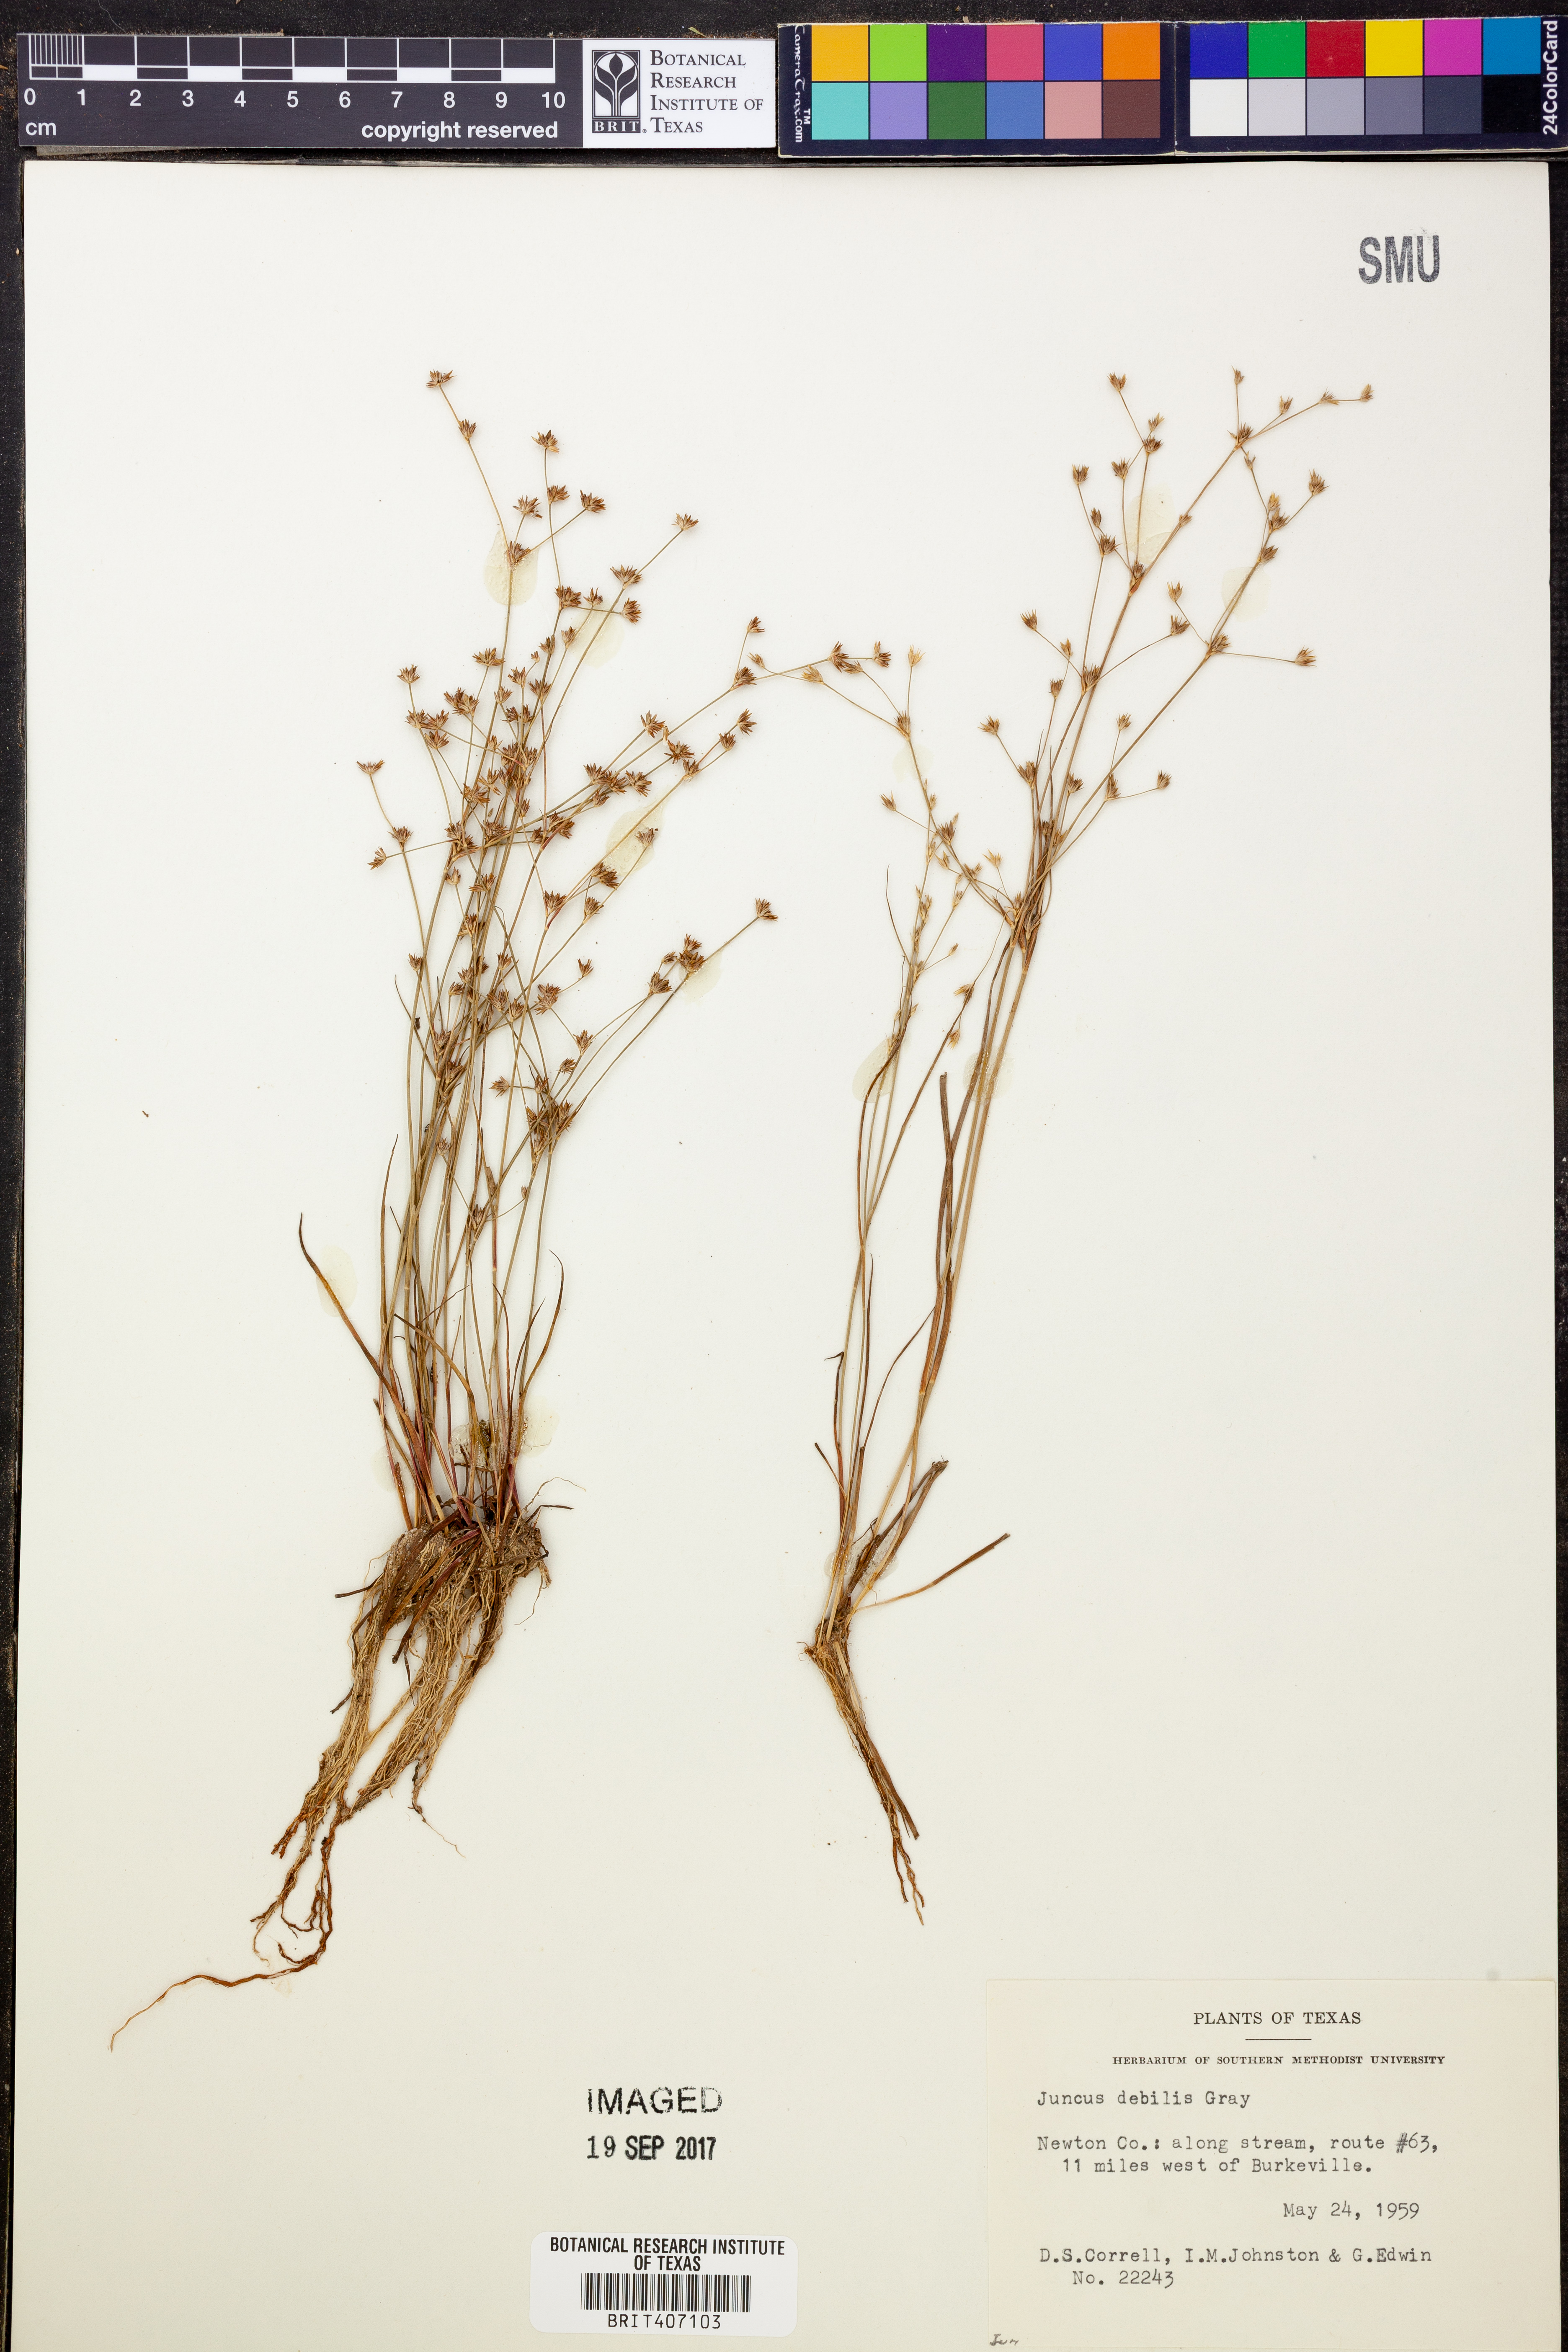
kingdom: Plantae
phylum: Tracheophyta
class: Liliopsida
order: Poales
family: Juncaceae
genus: Juncus
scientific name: Juncus debilis
